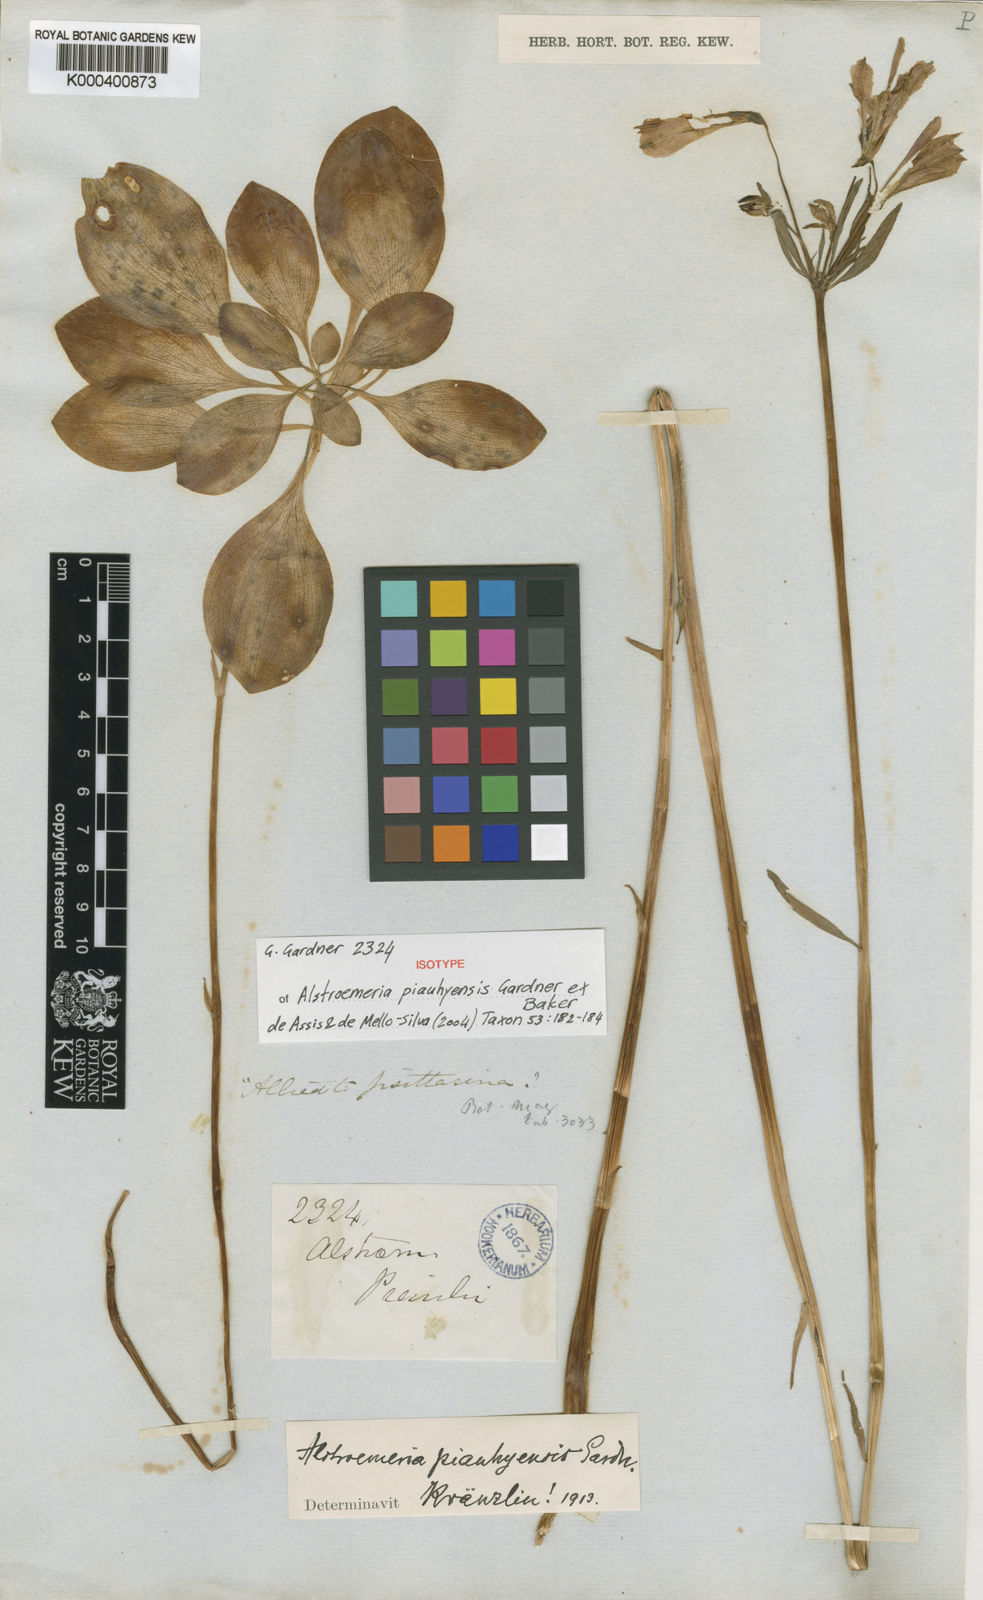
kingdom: Plantae
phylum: Tracheophyta
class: Liliopsida
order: Liliales
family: Alstroemeriaceae
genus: Alstroemeria
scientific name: Alstroemeria piauhyensis
